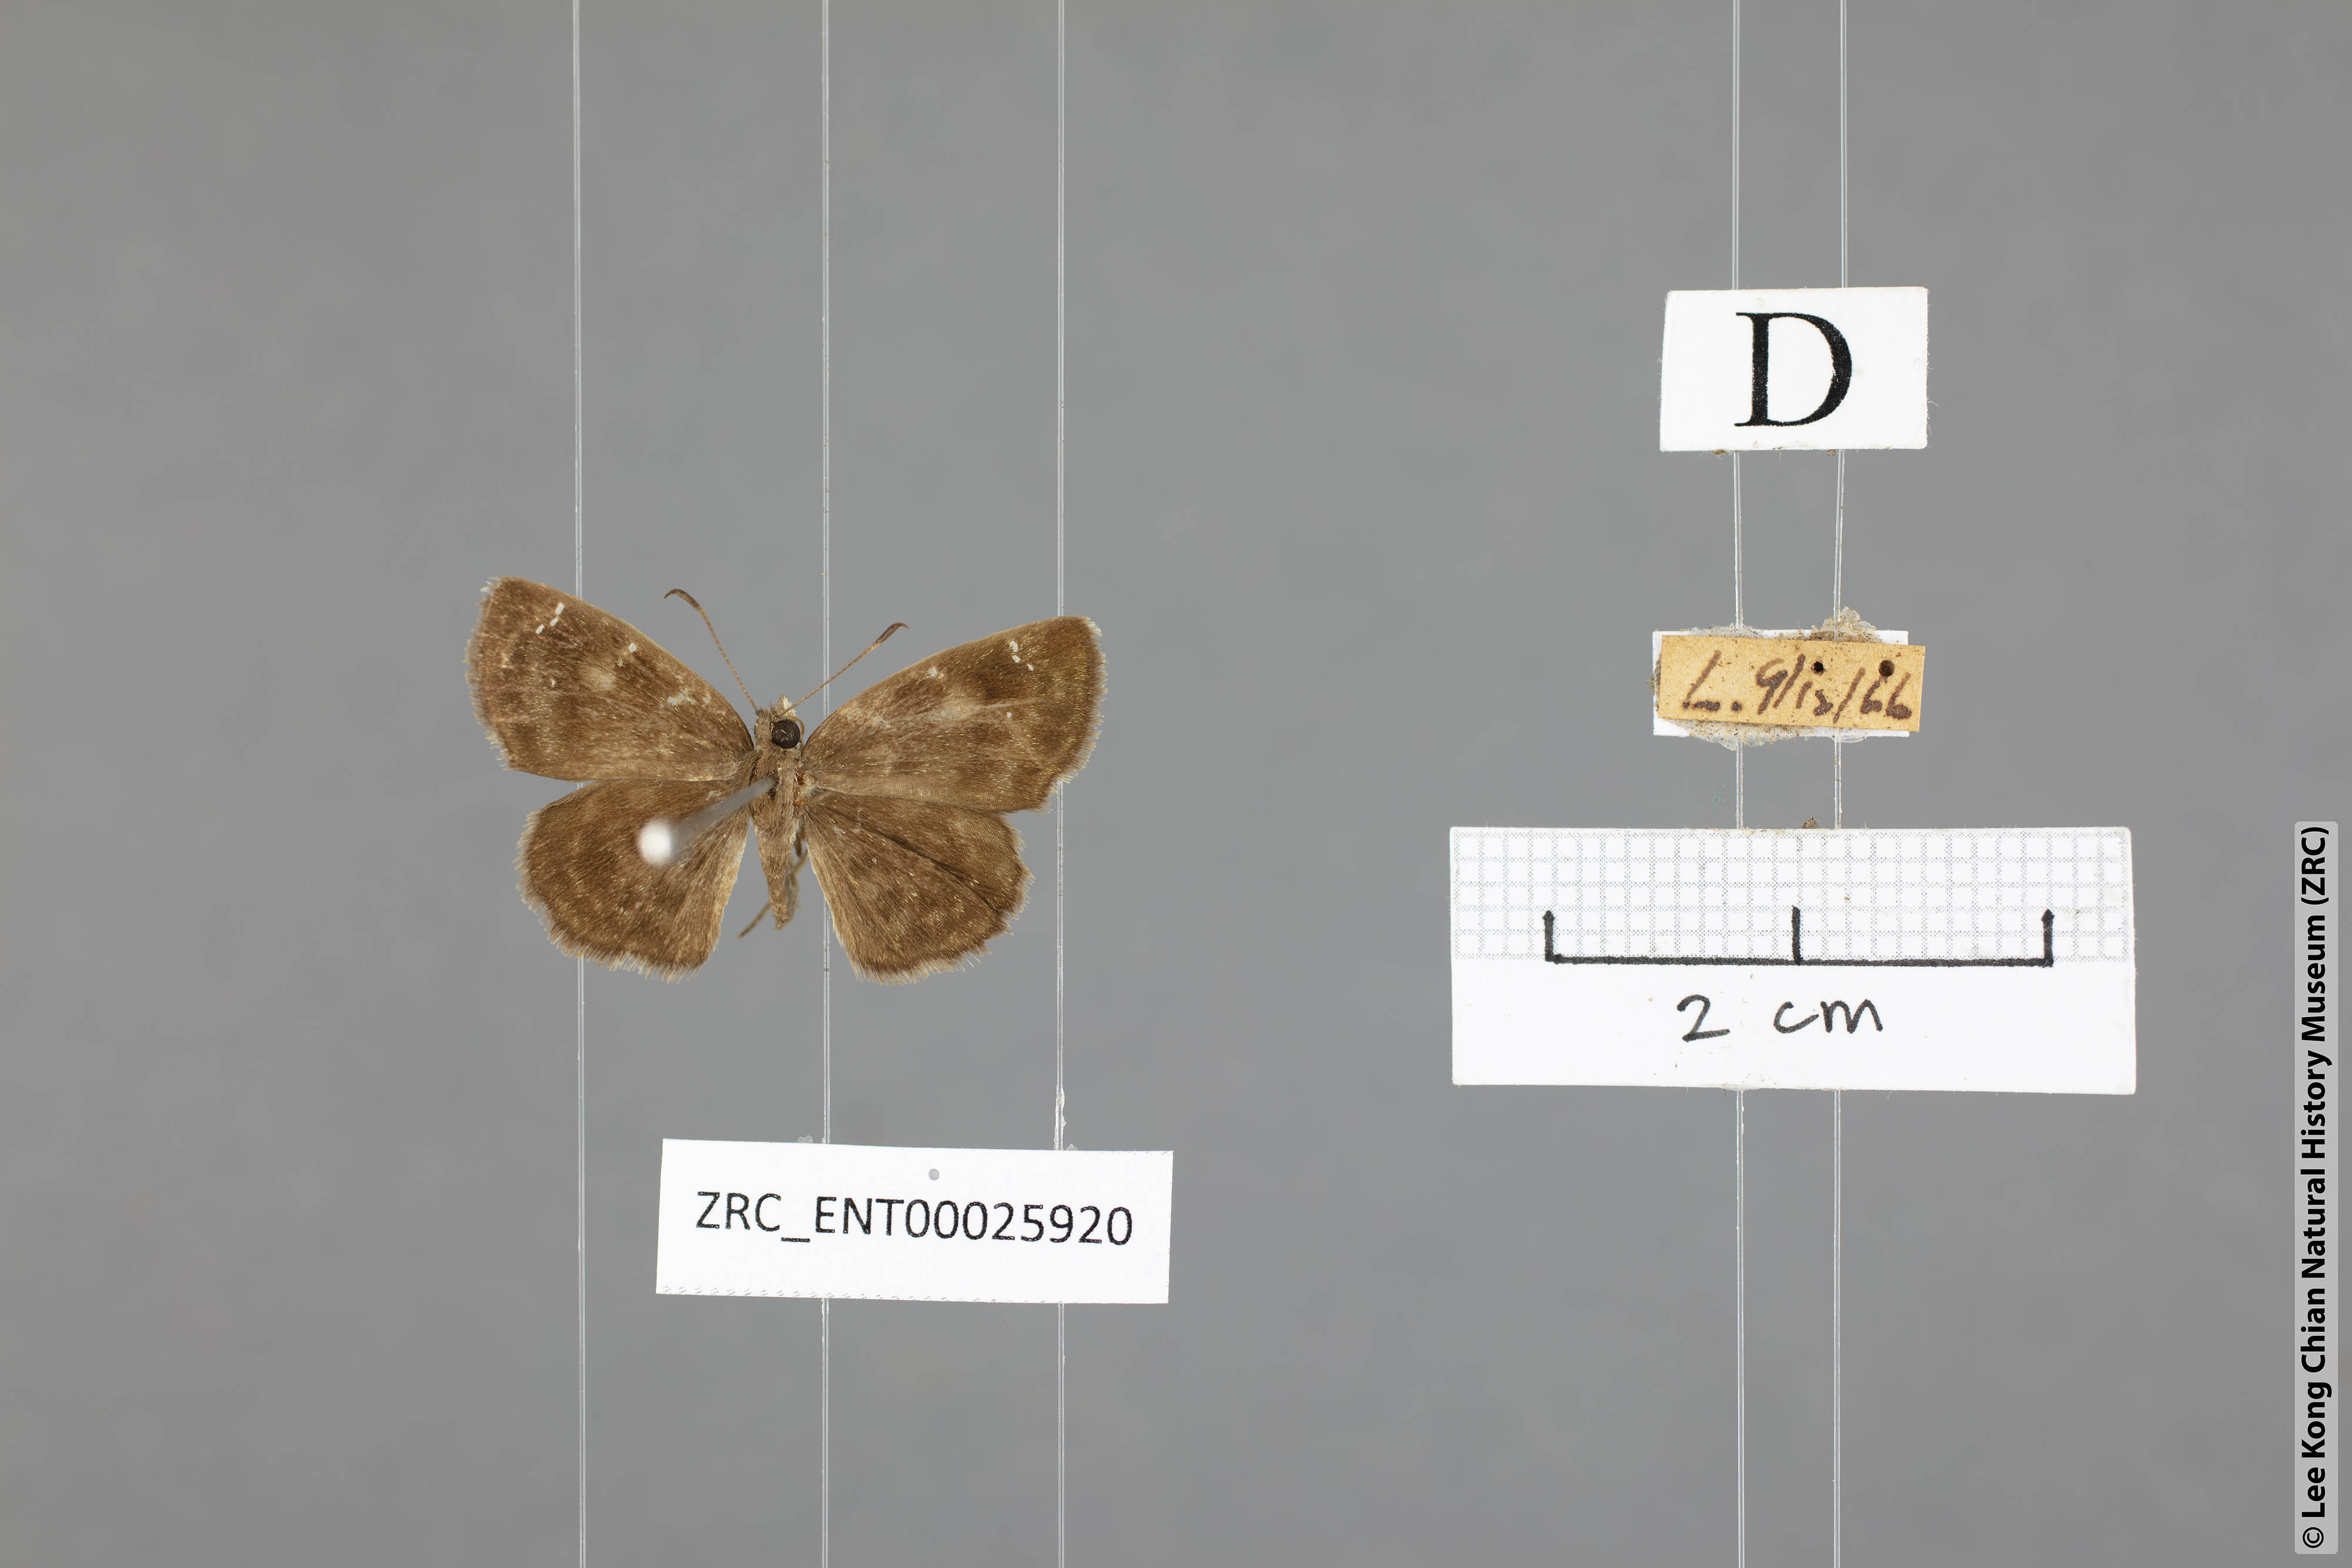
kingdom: Animalia
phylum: Arthropoda
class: Insecta
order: Lepidoptera
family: Hesperiidae
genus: Sarangesa
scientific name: Sarangesa dasahara
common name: Common small flat
